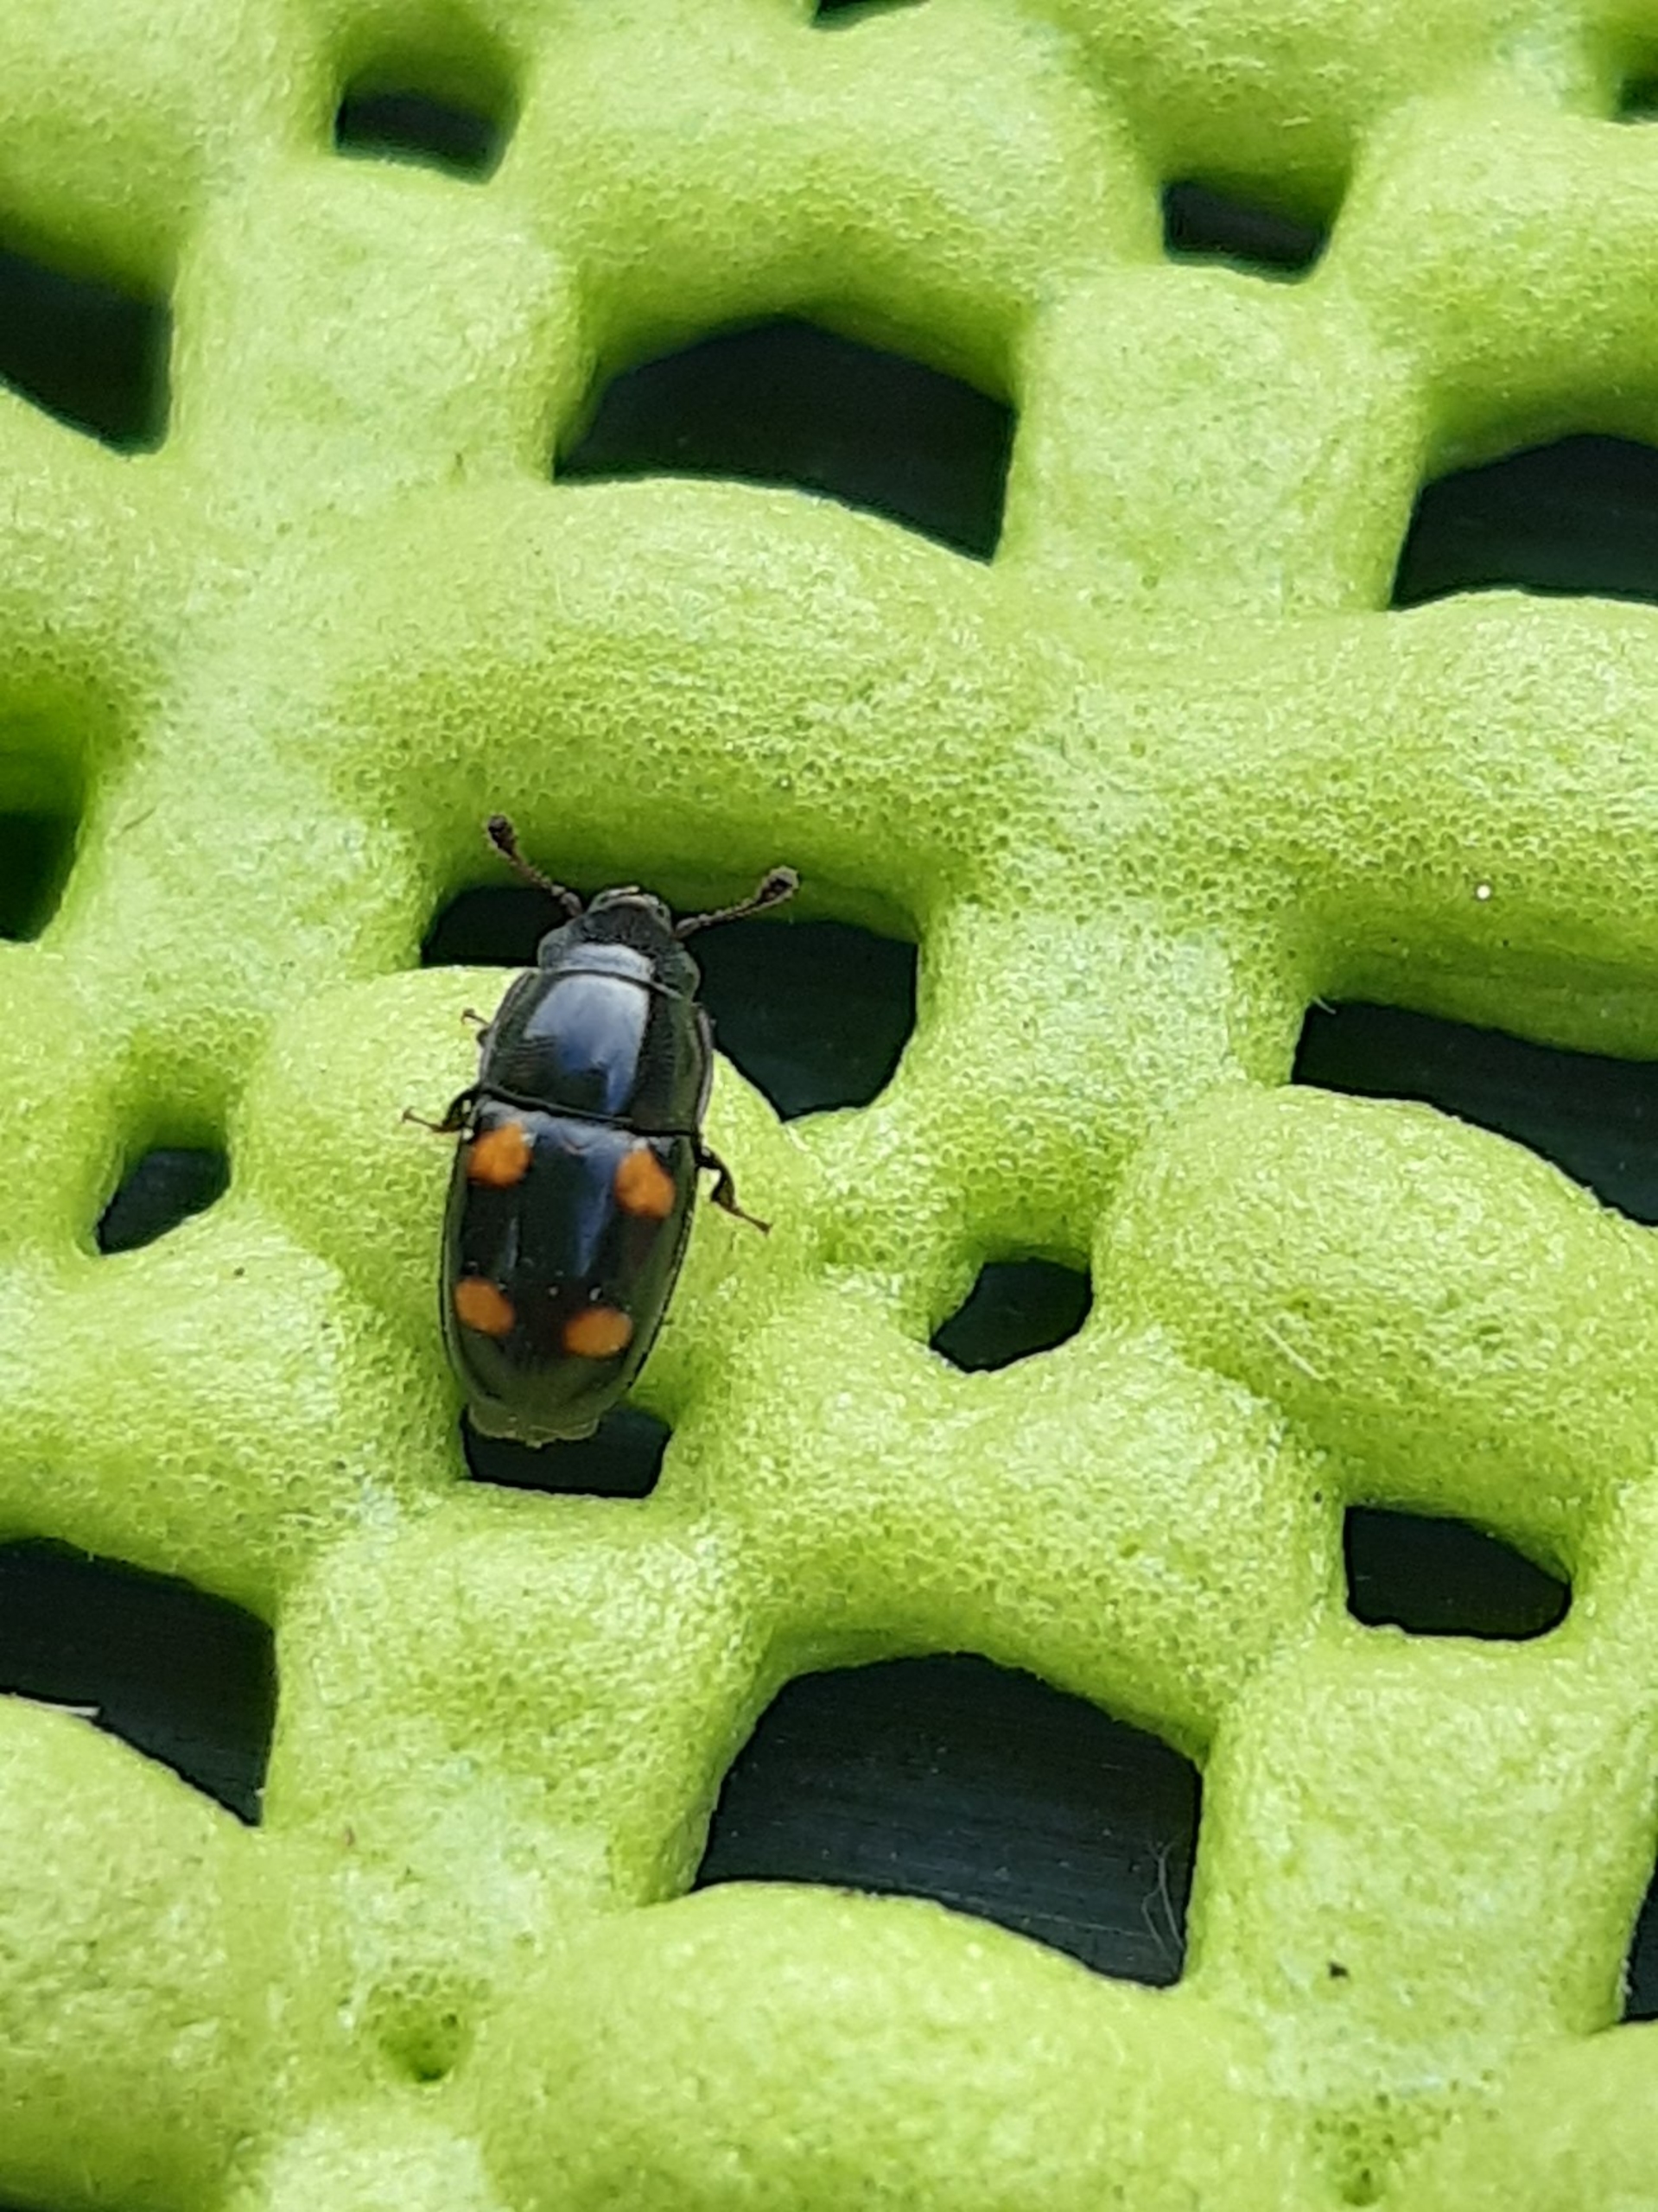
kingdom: Animalia
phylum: Arthropoda
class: Insecta
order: Coleoptera
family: Nitidulidae
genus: Glischrochilus
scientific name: Glischrochilus hortensis
